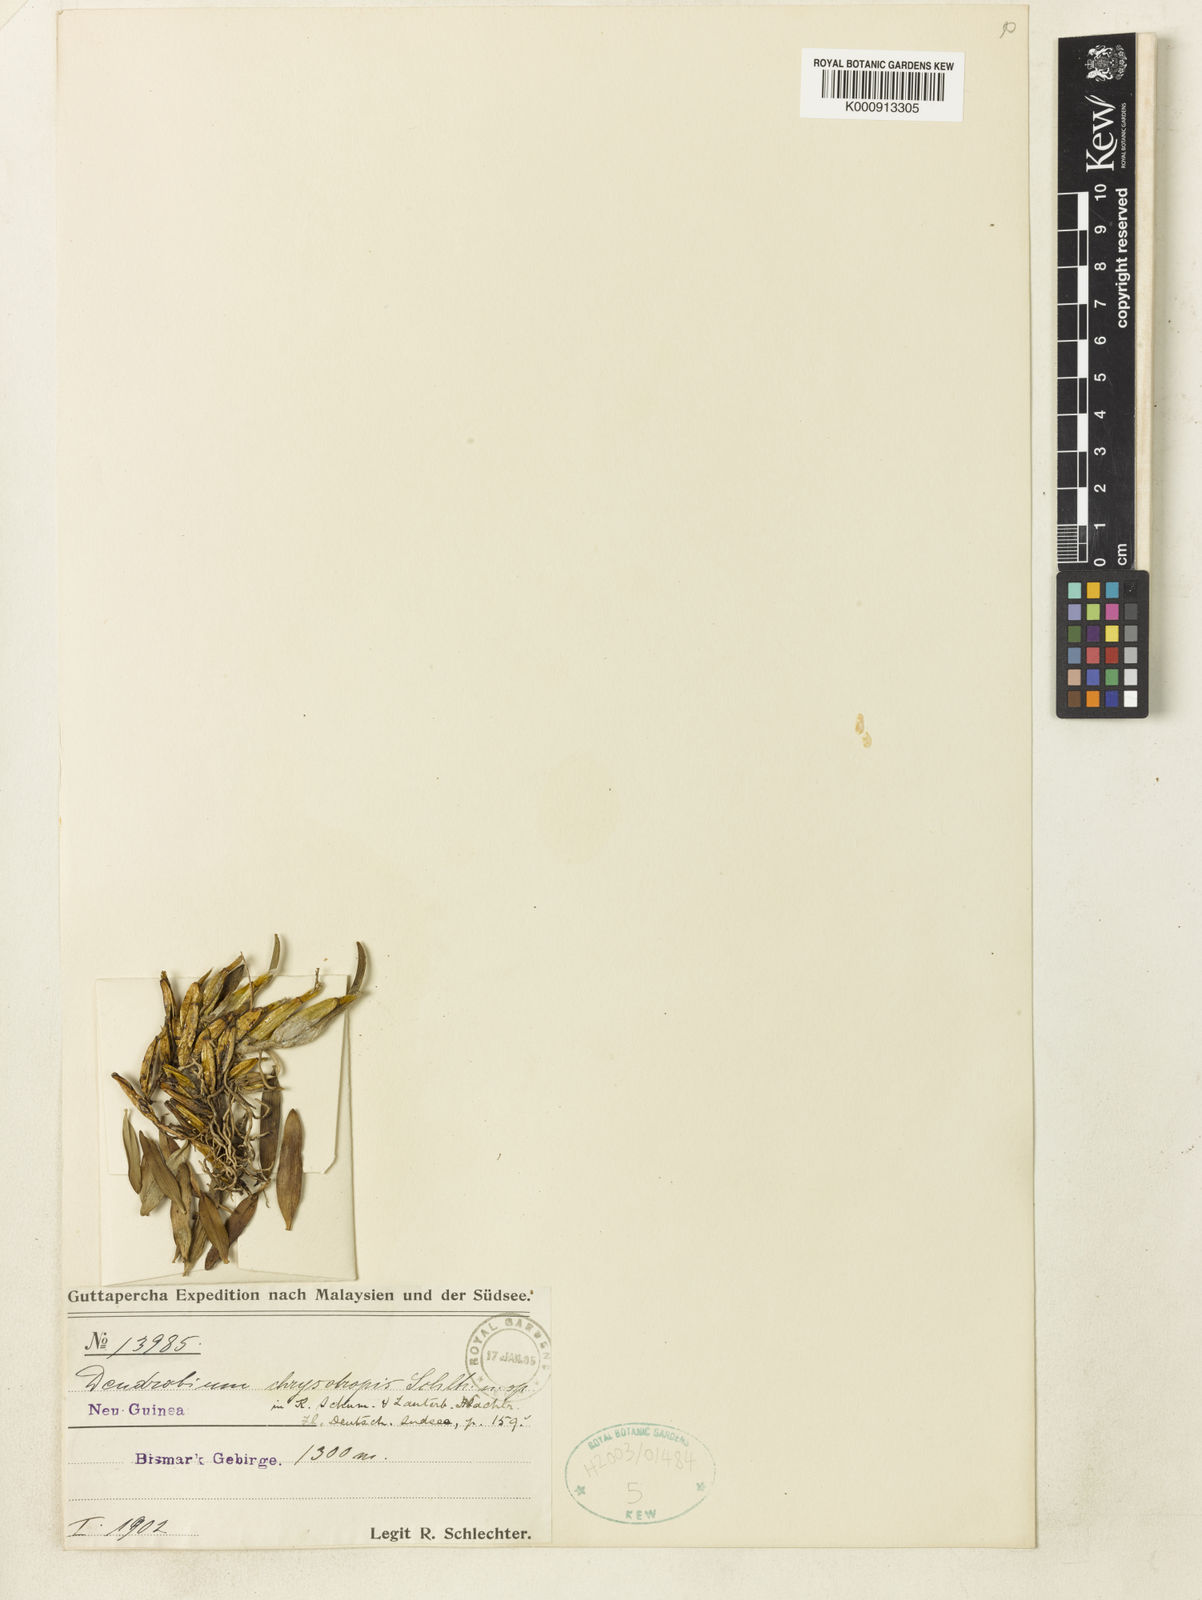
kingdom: Plantae
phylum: Tracheophyta
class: Liliopsida
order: Asparagales
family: Orchidaceae
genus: Dendrobium
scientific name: Dendrobium chrysotropis
